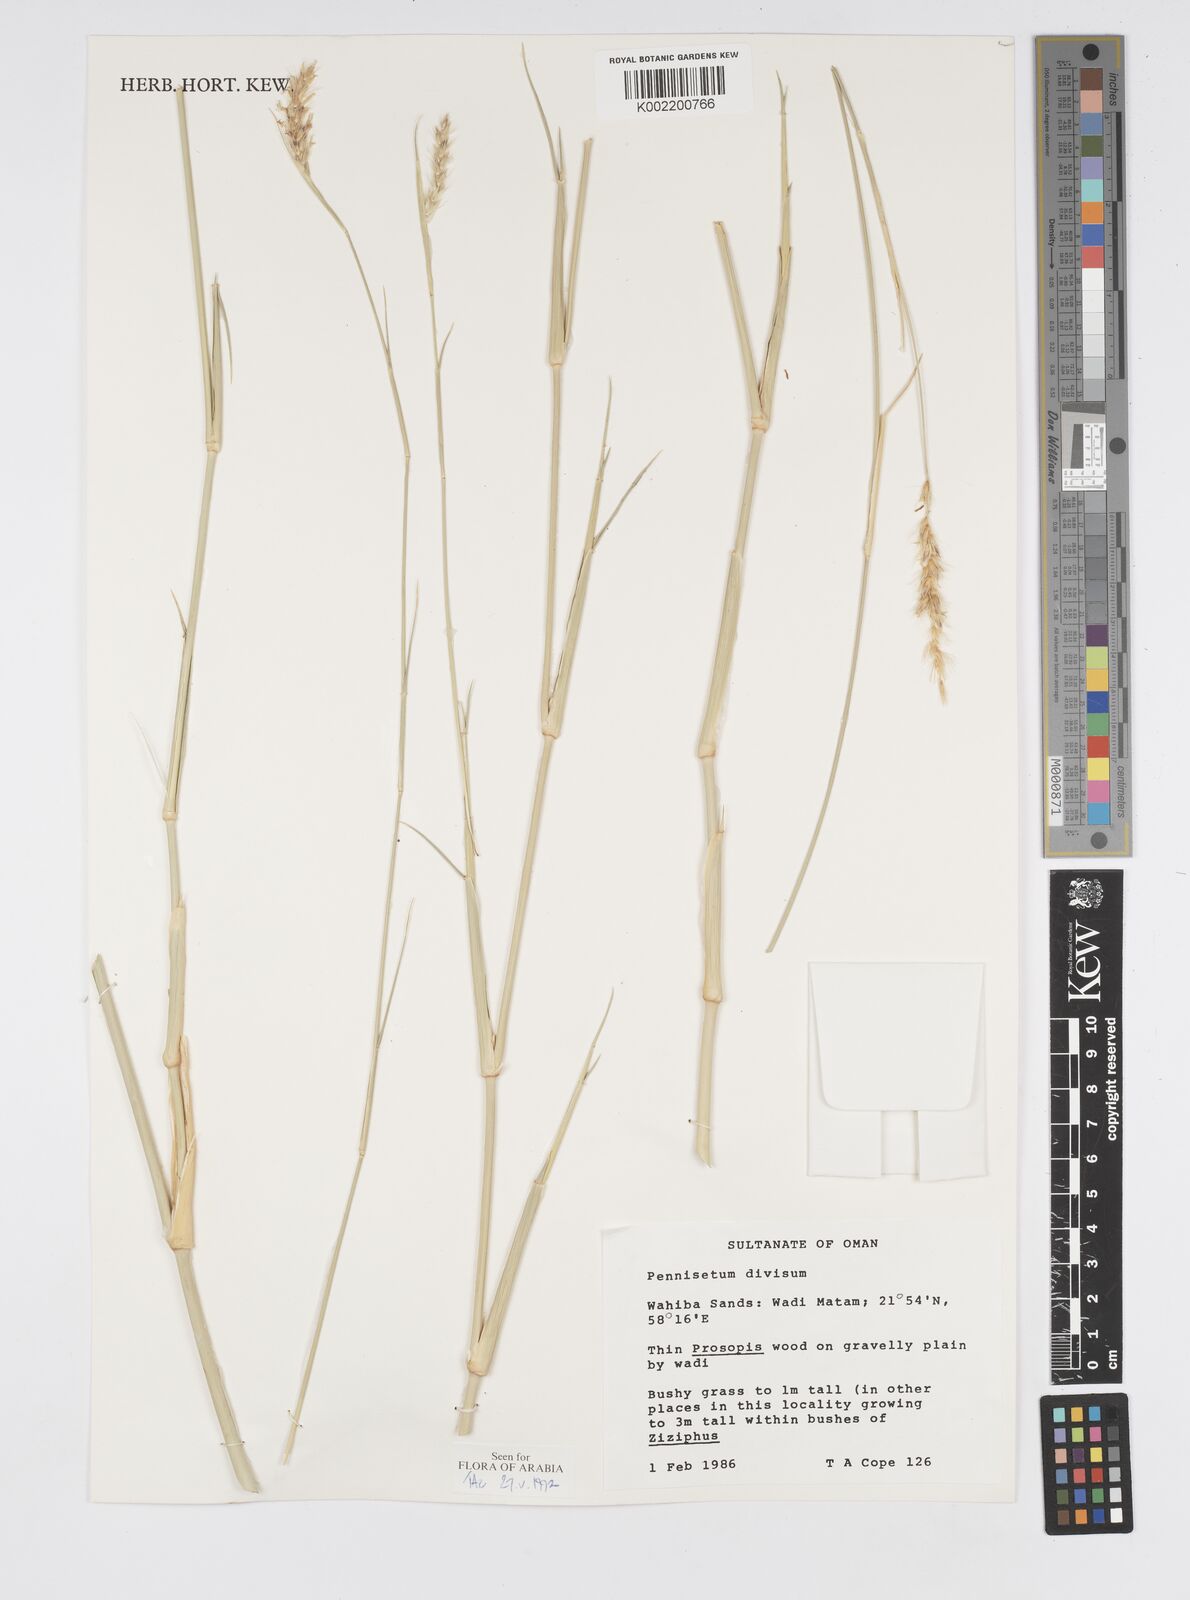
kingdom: Plantae
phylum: Tracheophyta
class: Liliopsida
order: Poales
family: Poaceae
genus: Cenchrus
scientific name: Cenchrus divisus
